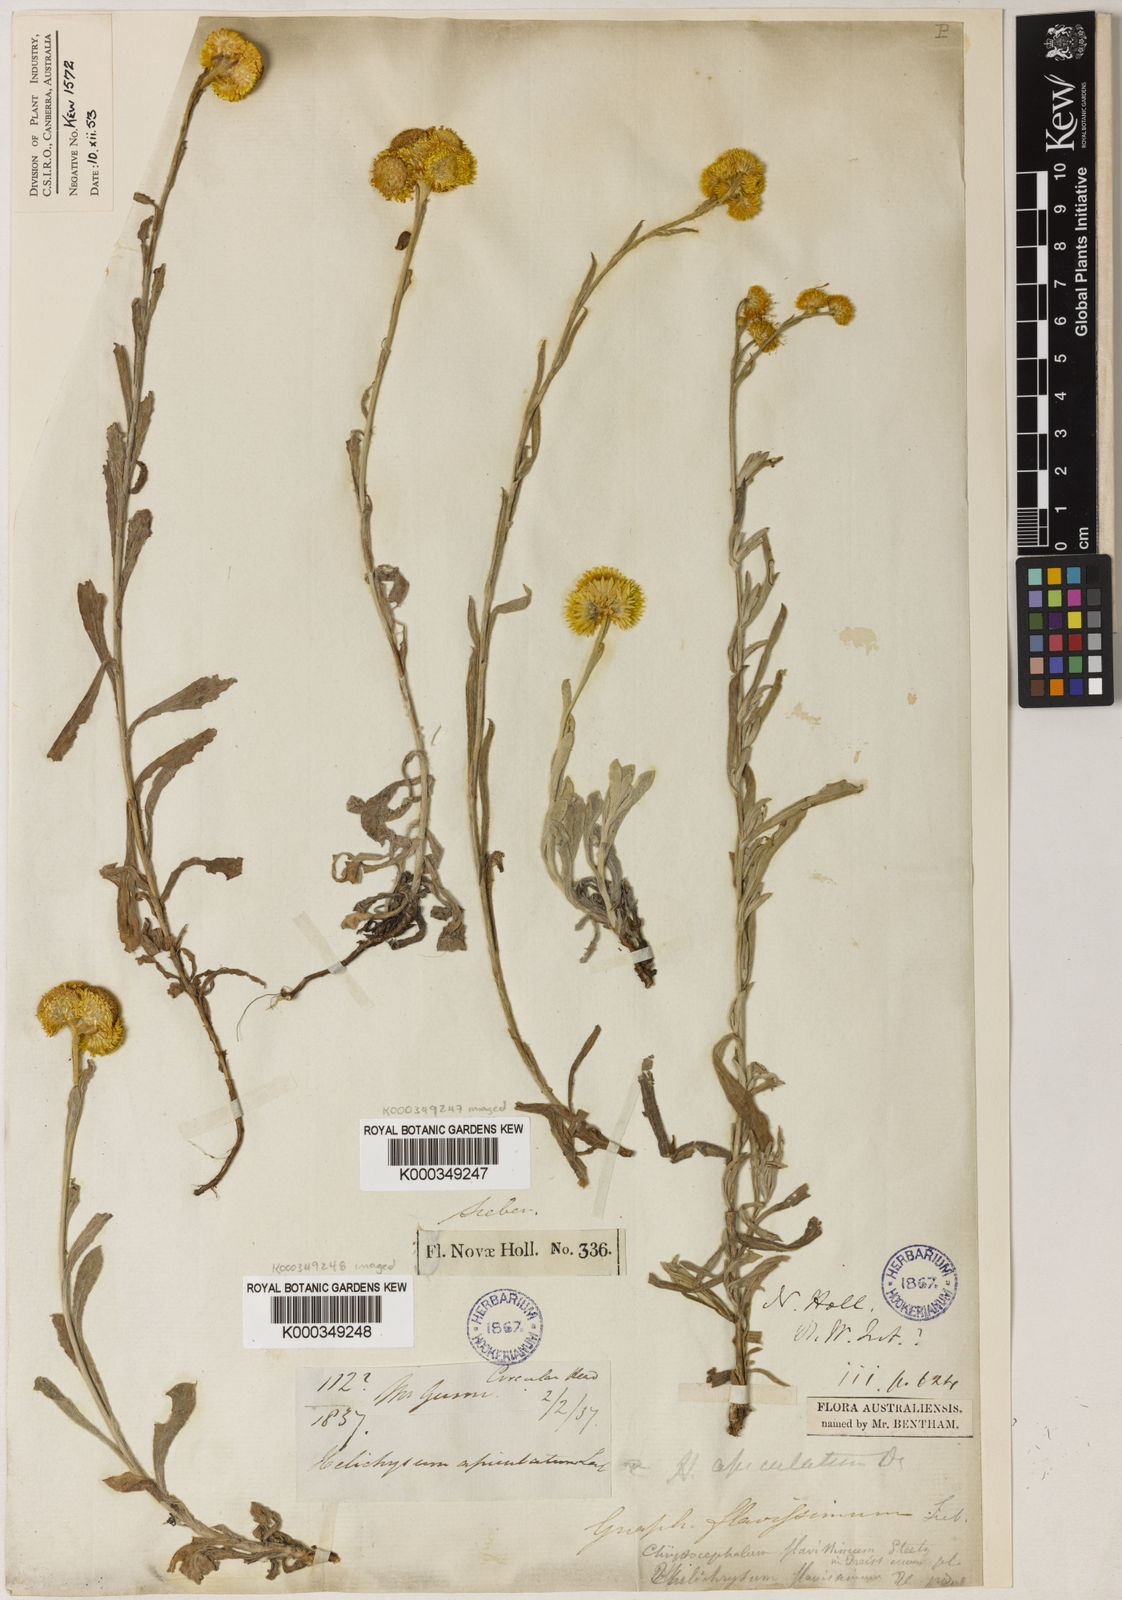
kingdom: Plantae
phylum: Tracheophyta
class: Magnoliopsida
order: Asterales
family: Asteraceae
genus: Chrysocephalum
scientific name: Chrysocephalum apiculatum
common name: Common everlasting
